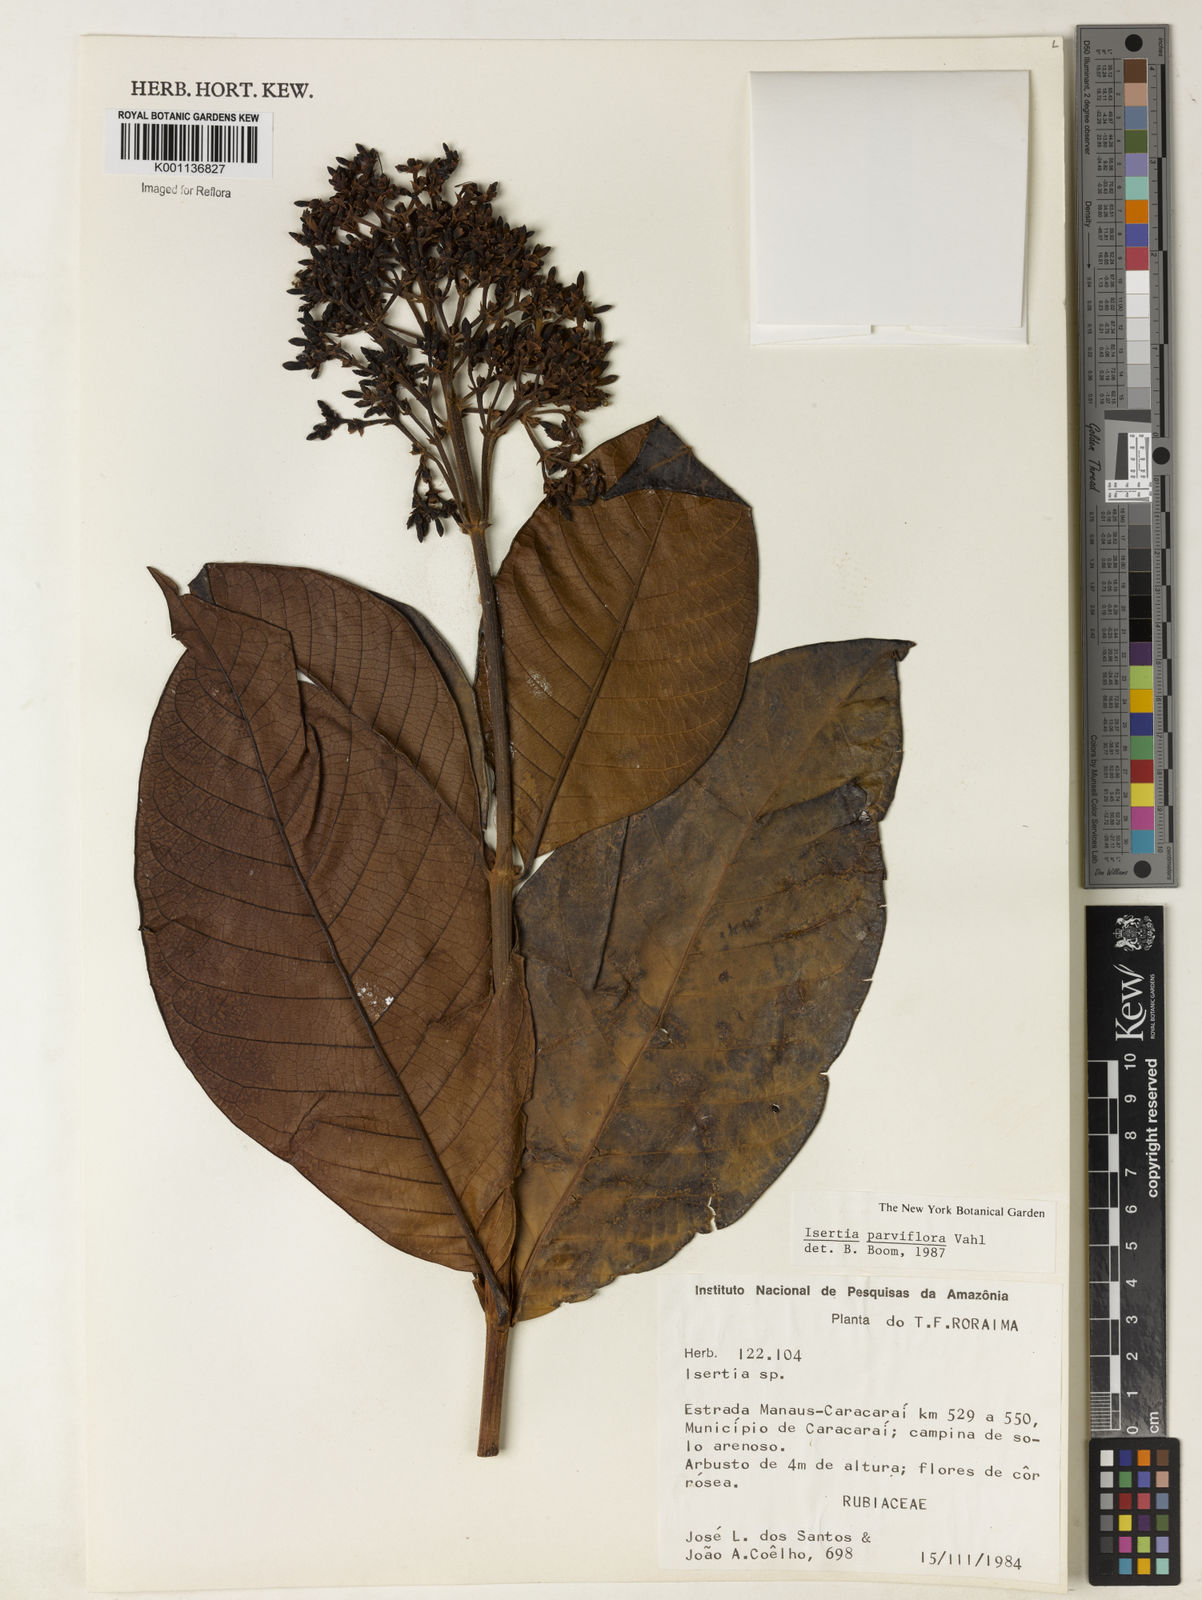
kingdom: Plantae
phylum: Tracheophyta
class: Magnoliopsida
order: Gentianales
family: Rubiaceae
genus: Isertia
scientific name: Isertia parviflora
